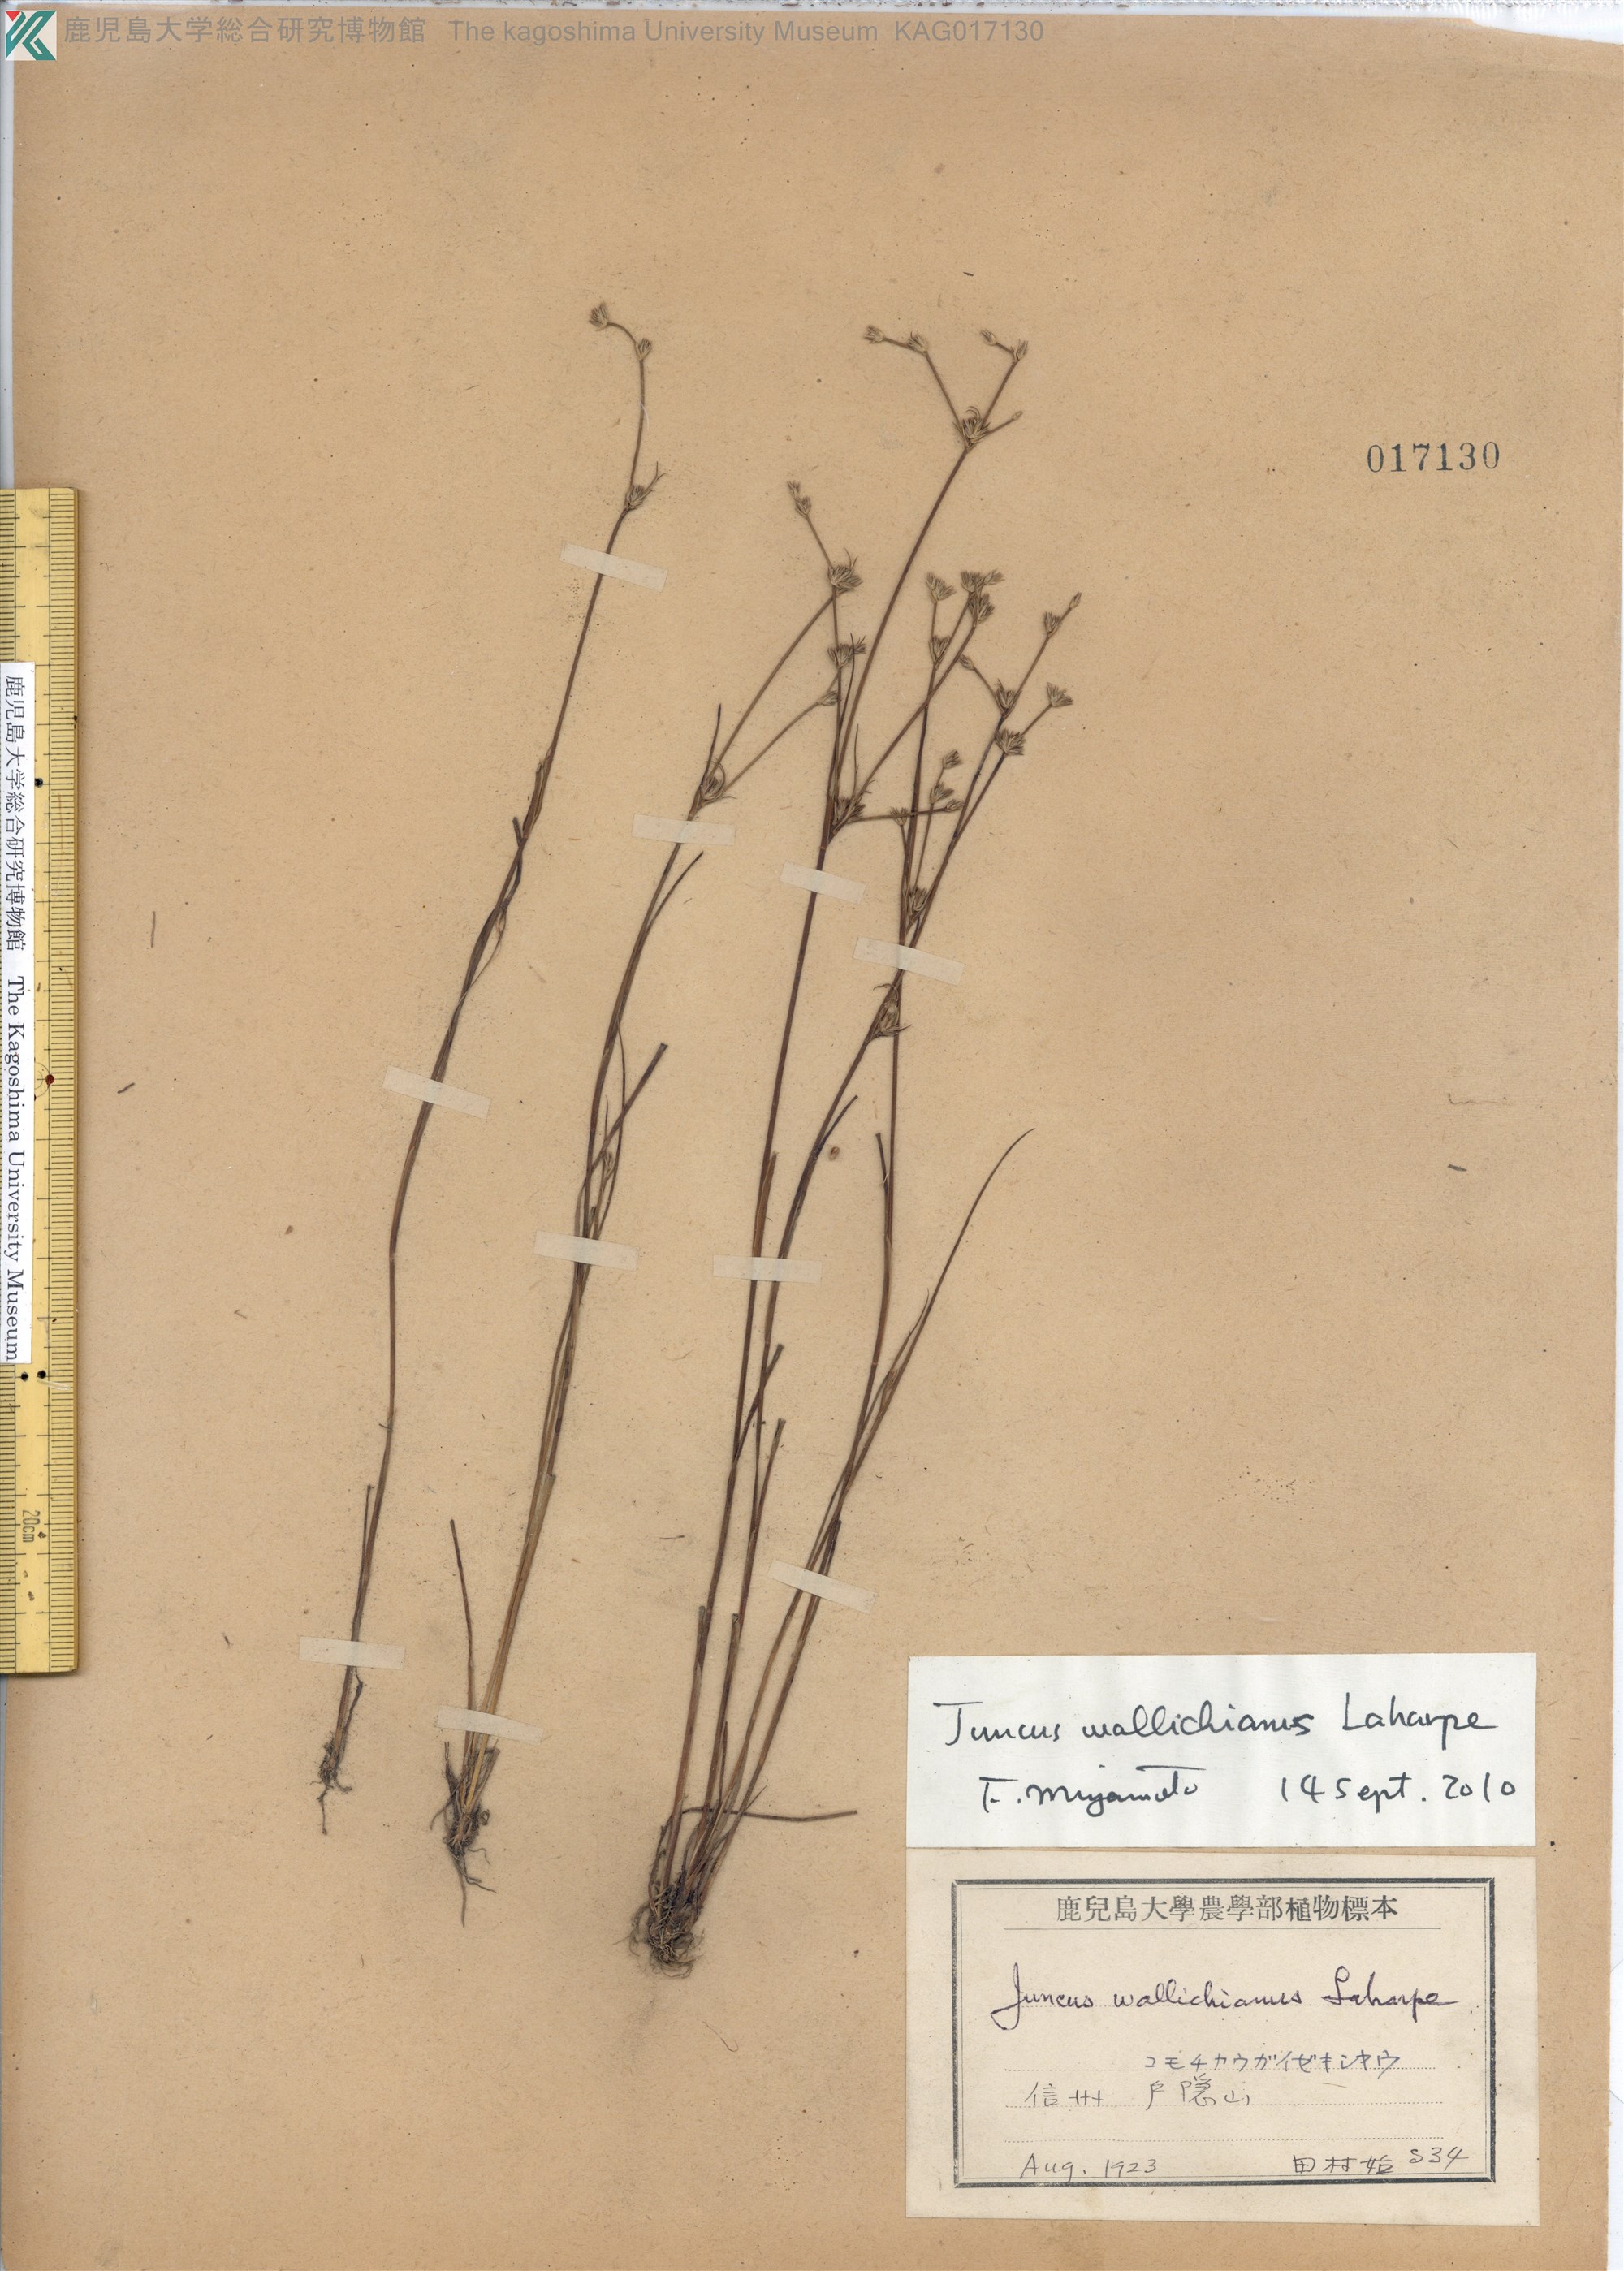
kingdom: Plantae
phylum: Tracheophyta
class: Liliopsida
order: Poales
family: Juncaceae
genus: Juncus
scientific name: Juncus wallichianus
